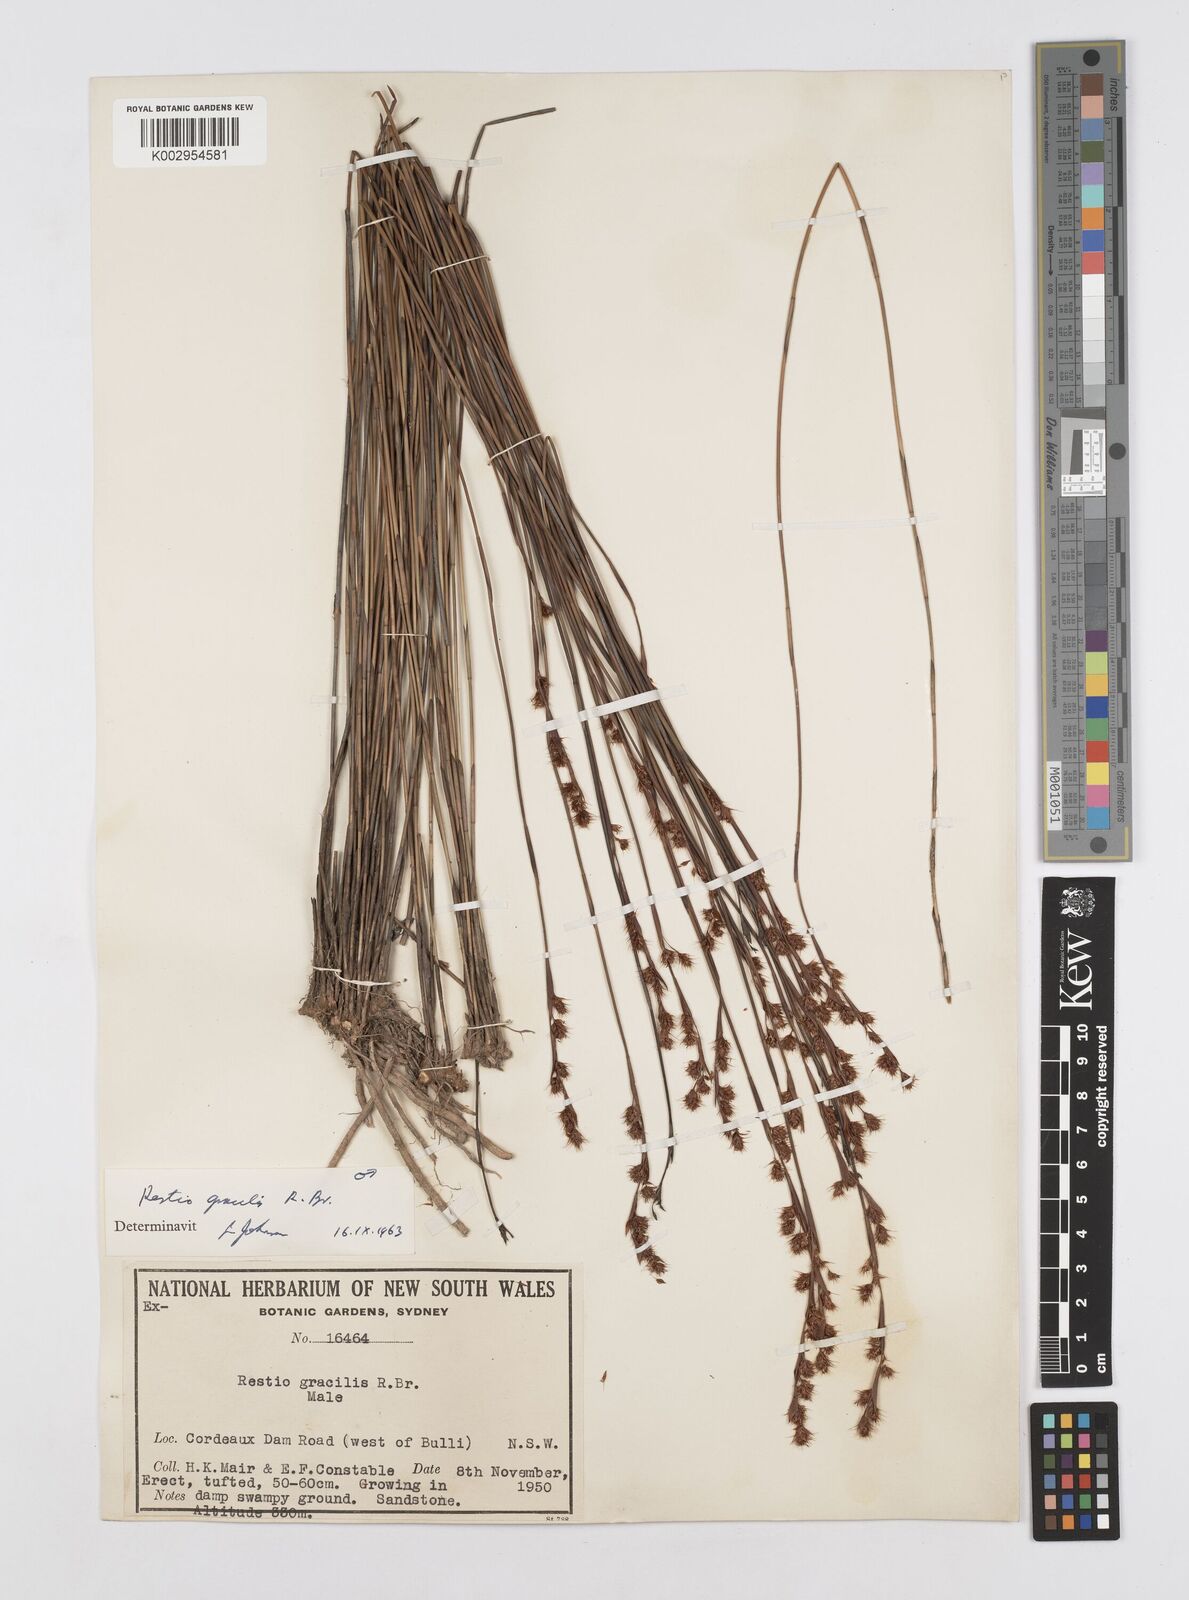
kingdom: Plantae
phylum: Tracheophyta
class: Liliopsida
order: Poales
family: Restionaceae
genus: Baloskion
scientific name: Baloskion gracile
